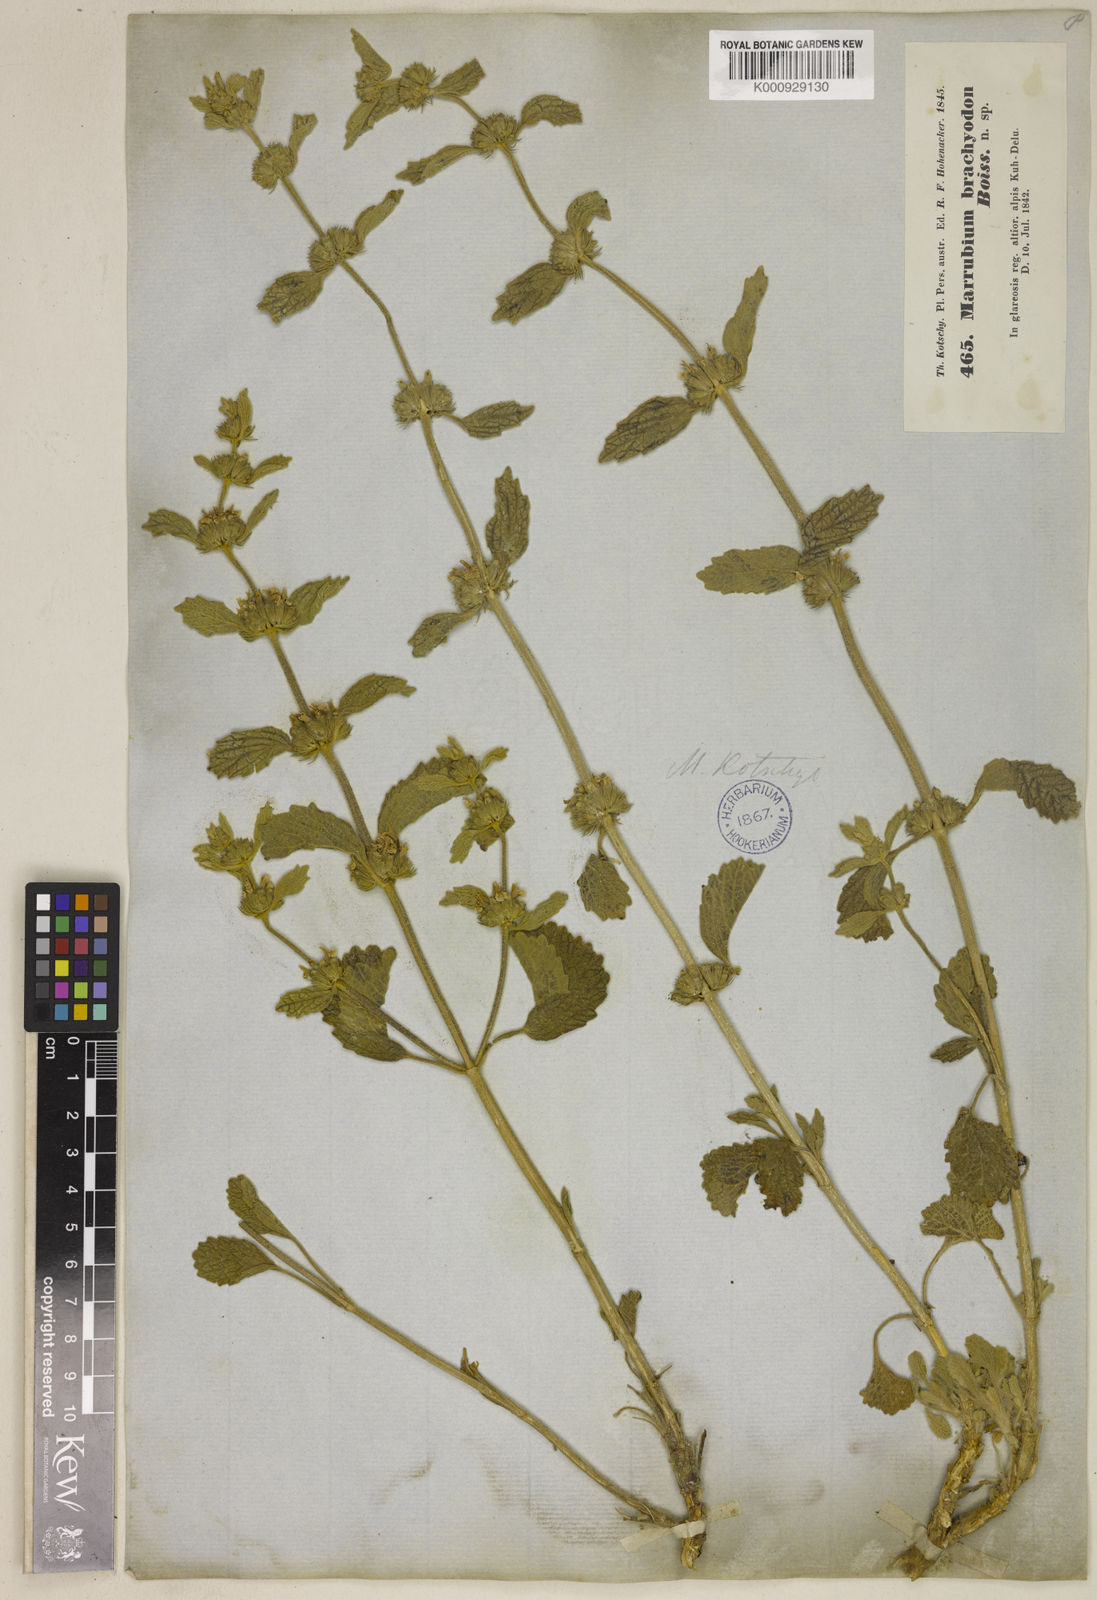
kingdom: Plantae
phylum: Tracheophyta
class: Magnoliopsida
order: Lamiales
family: Lamiaceae
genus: Marrubium
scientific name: Marrubium astracanicum
